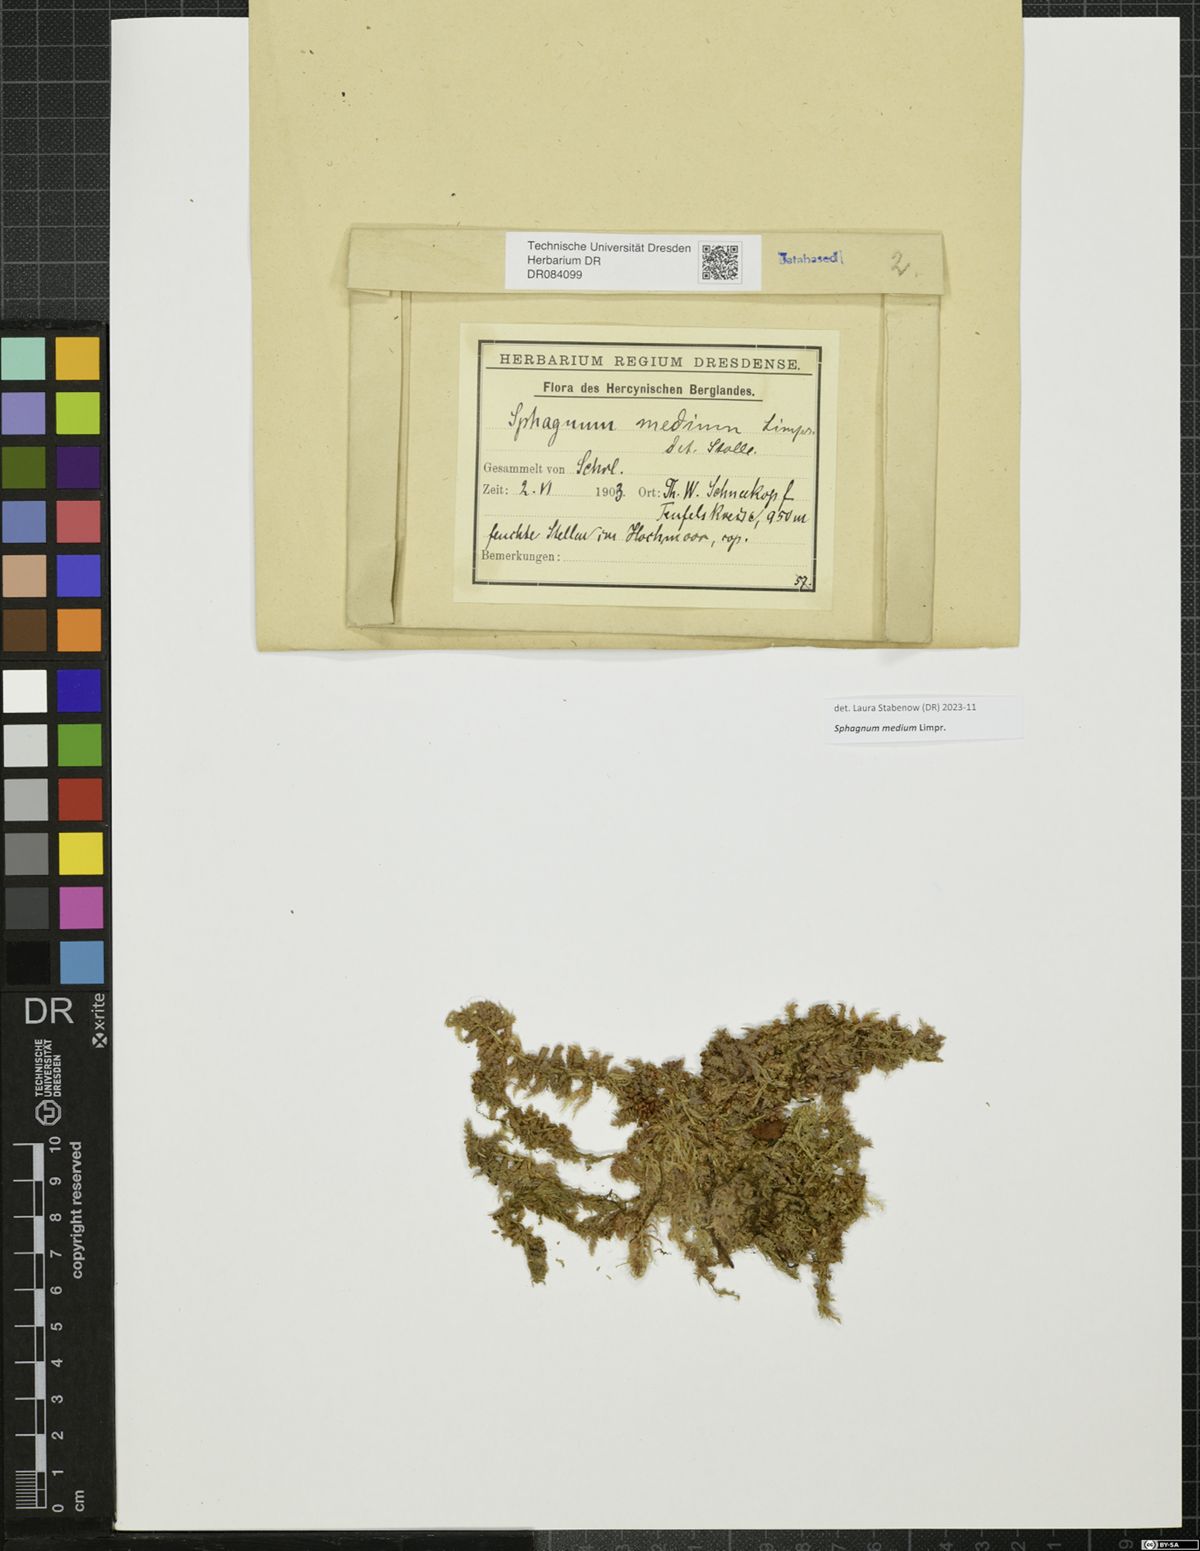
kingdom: Plantae
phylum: Bryophyta
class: Sphagnopsida
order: Sphagnales
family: Sphagnaceae
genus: Sphagnum
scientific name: Sphagnum medium
